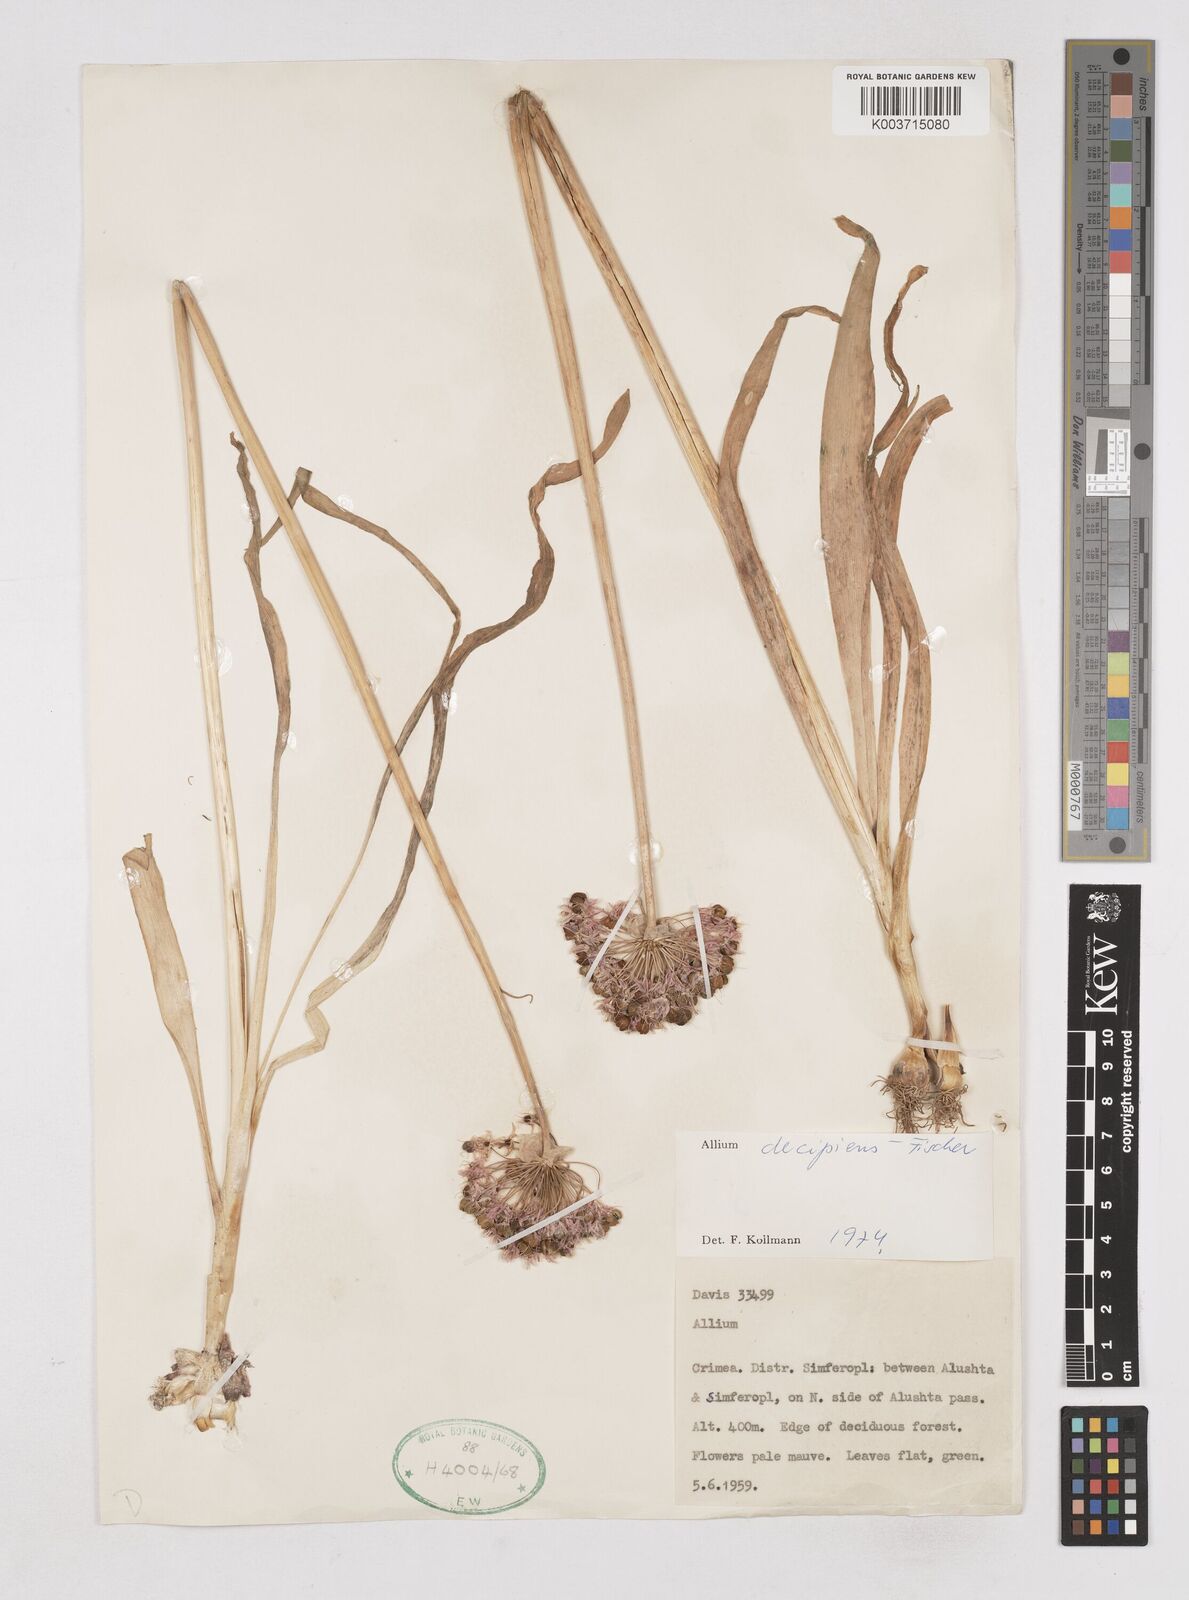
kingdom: Plantae
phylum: Tracheophyta
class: Liliopsida
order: Asparagales
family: Amaryllidaceae
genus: Allium
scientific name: Allium decipiens
